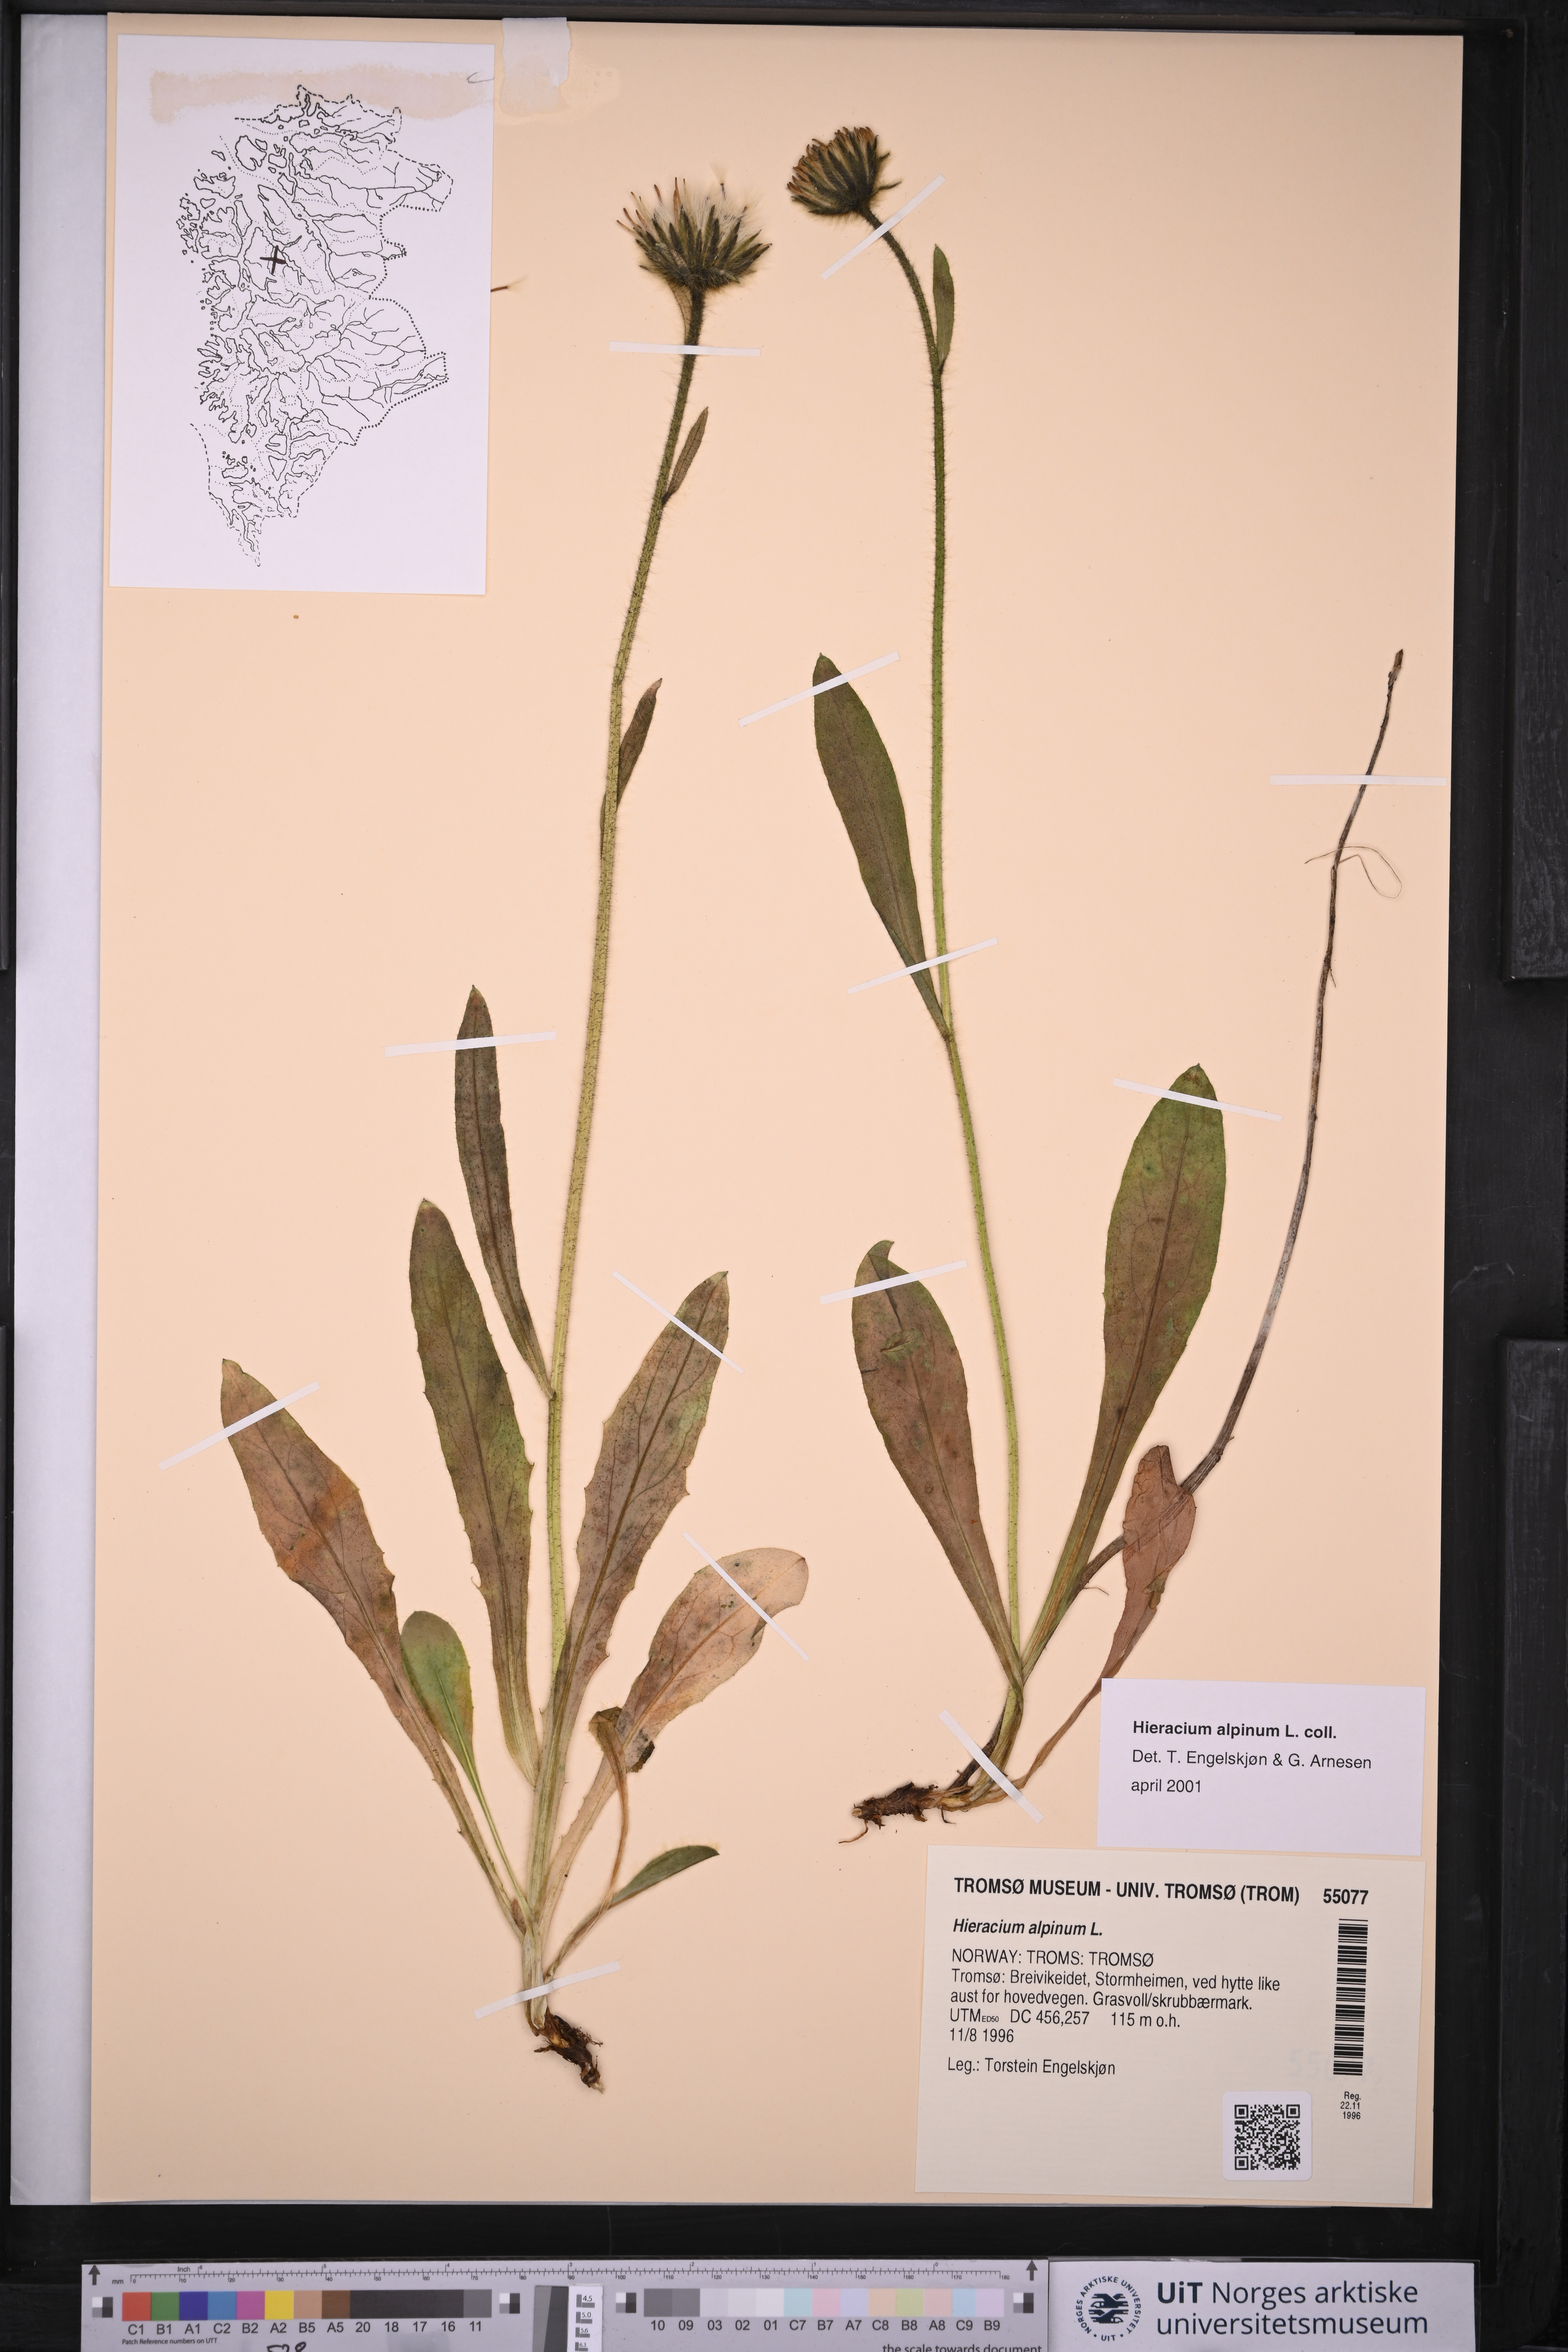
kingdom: Plantae
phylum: Tracheophyta
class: Magnoliopsida
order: Asterales
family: Asteraceae
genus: Hieracium
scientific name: Hieracium alpinum
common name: Alpine hawkweed
